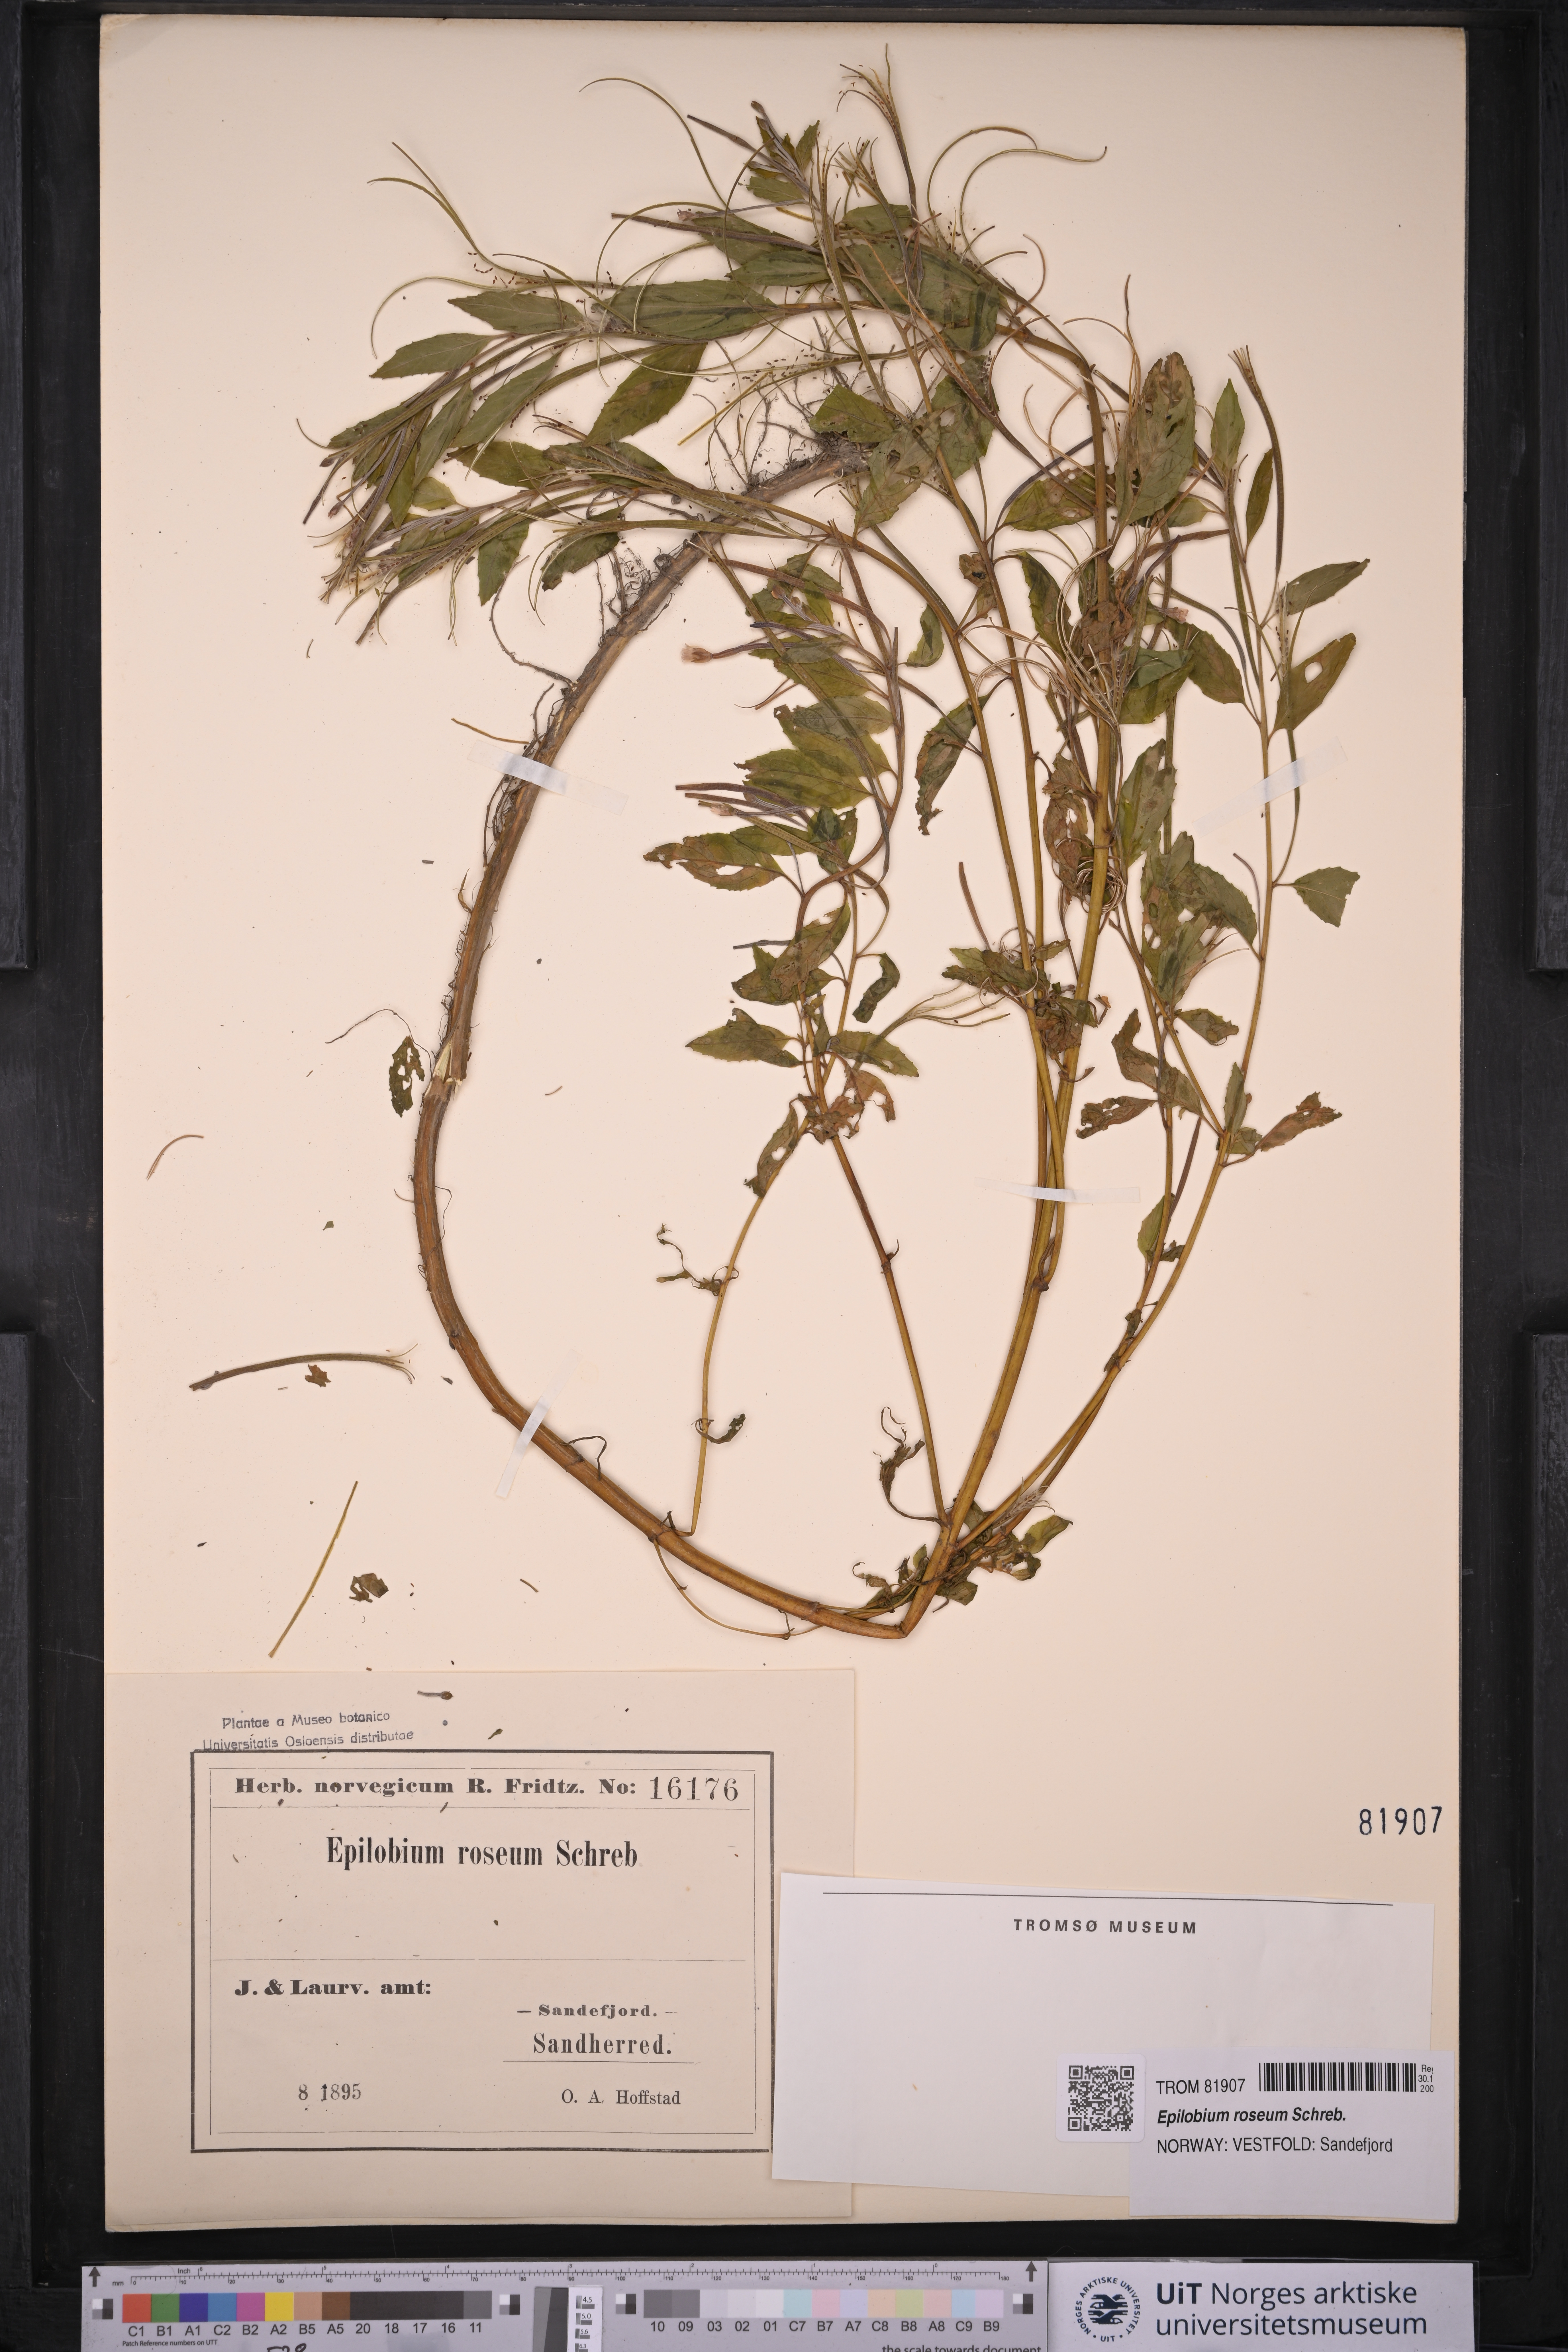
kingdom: Plantae
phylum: Tracheophyta
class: Magnoliopsida
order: Myrtales
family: Onagraceae
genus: Epilobium
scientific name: Epilobium roseum
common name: Pale willowherb
